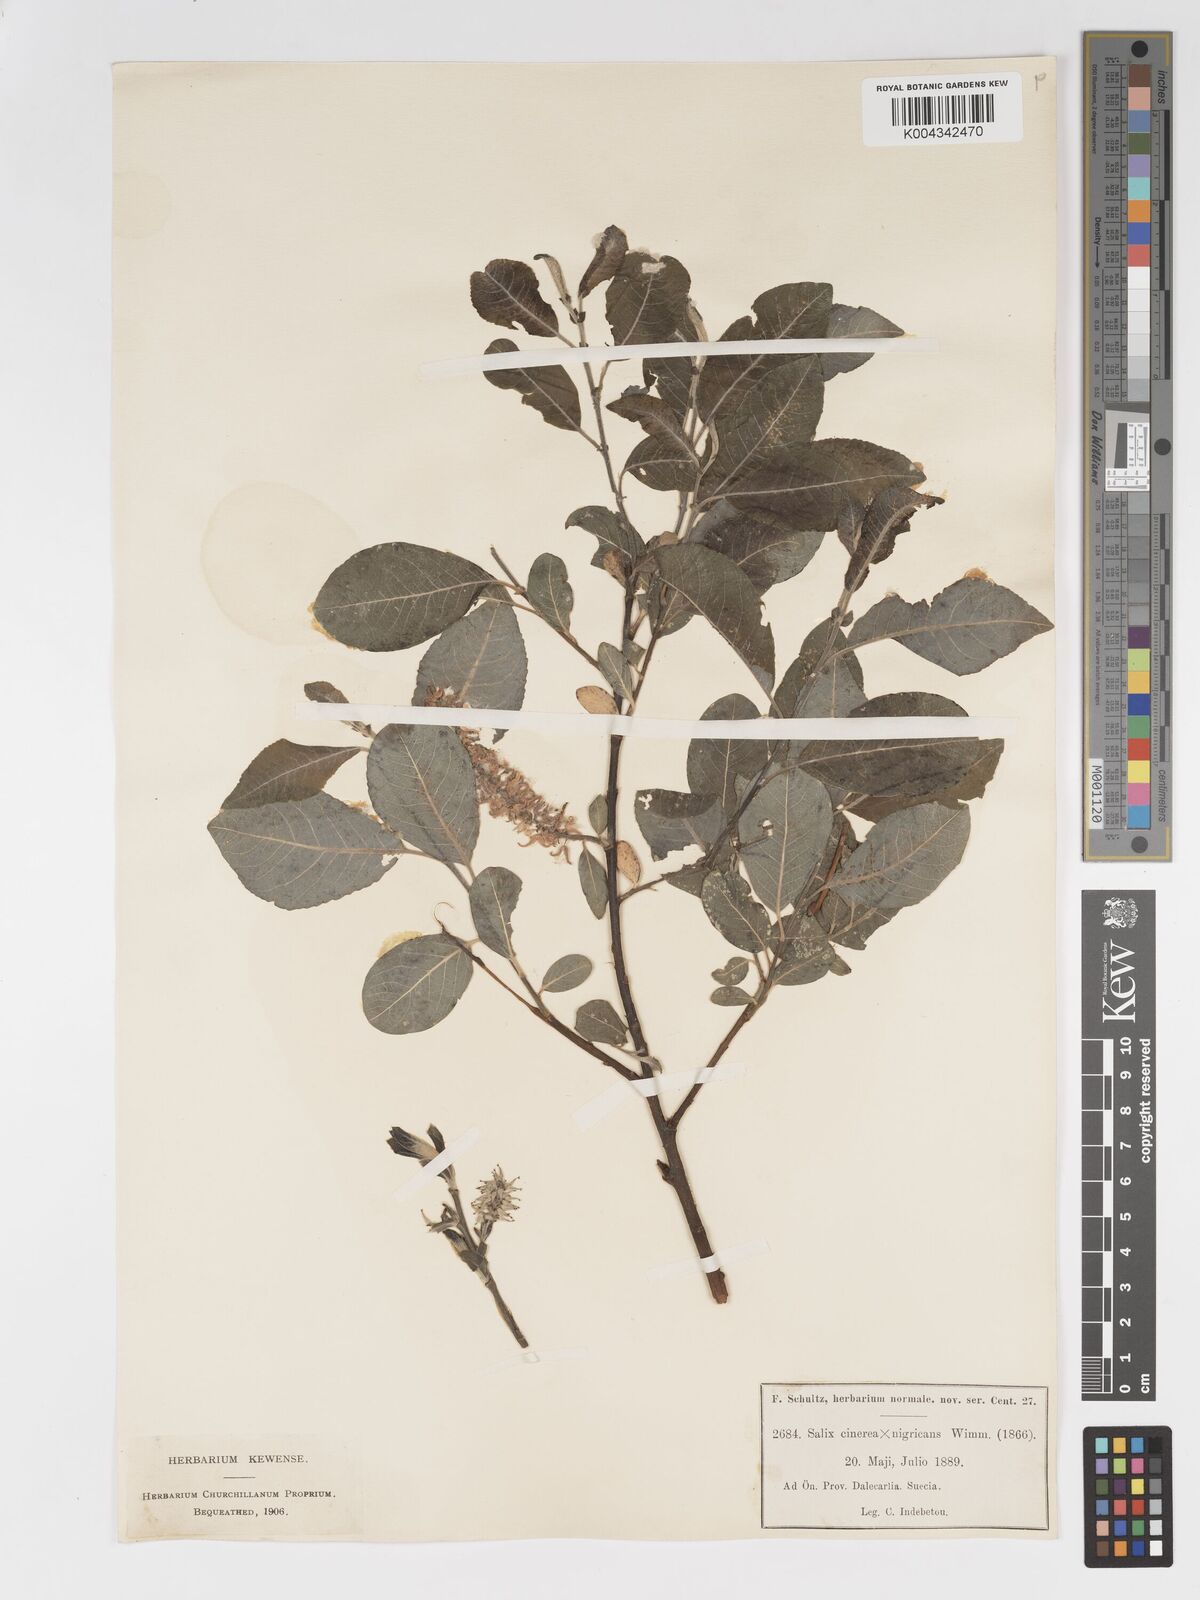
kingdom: Plantae
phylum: Tracheophyta
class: Magnoliopsida
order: Malpighiales
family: Salicaceae
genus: Salix
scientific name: Salix
